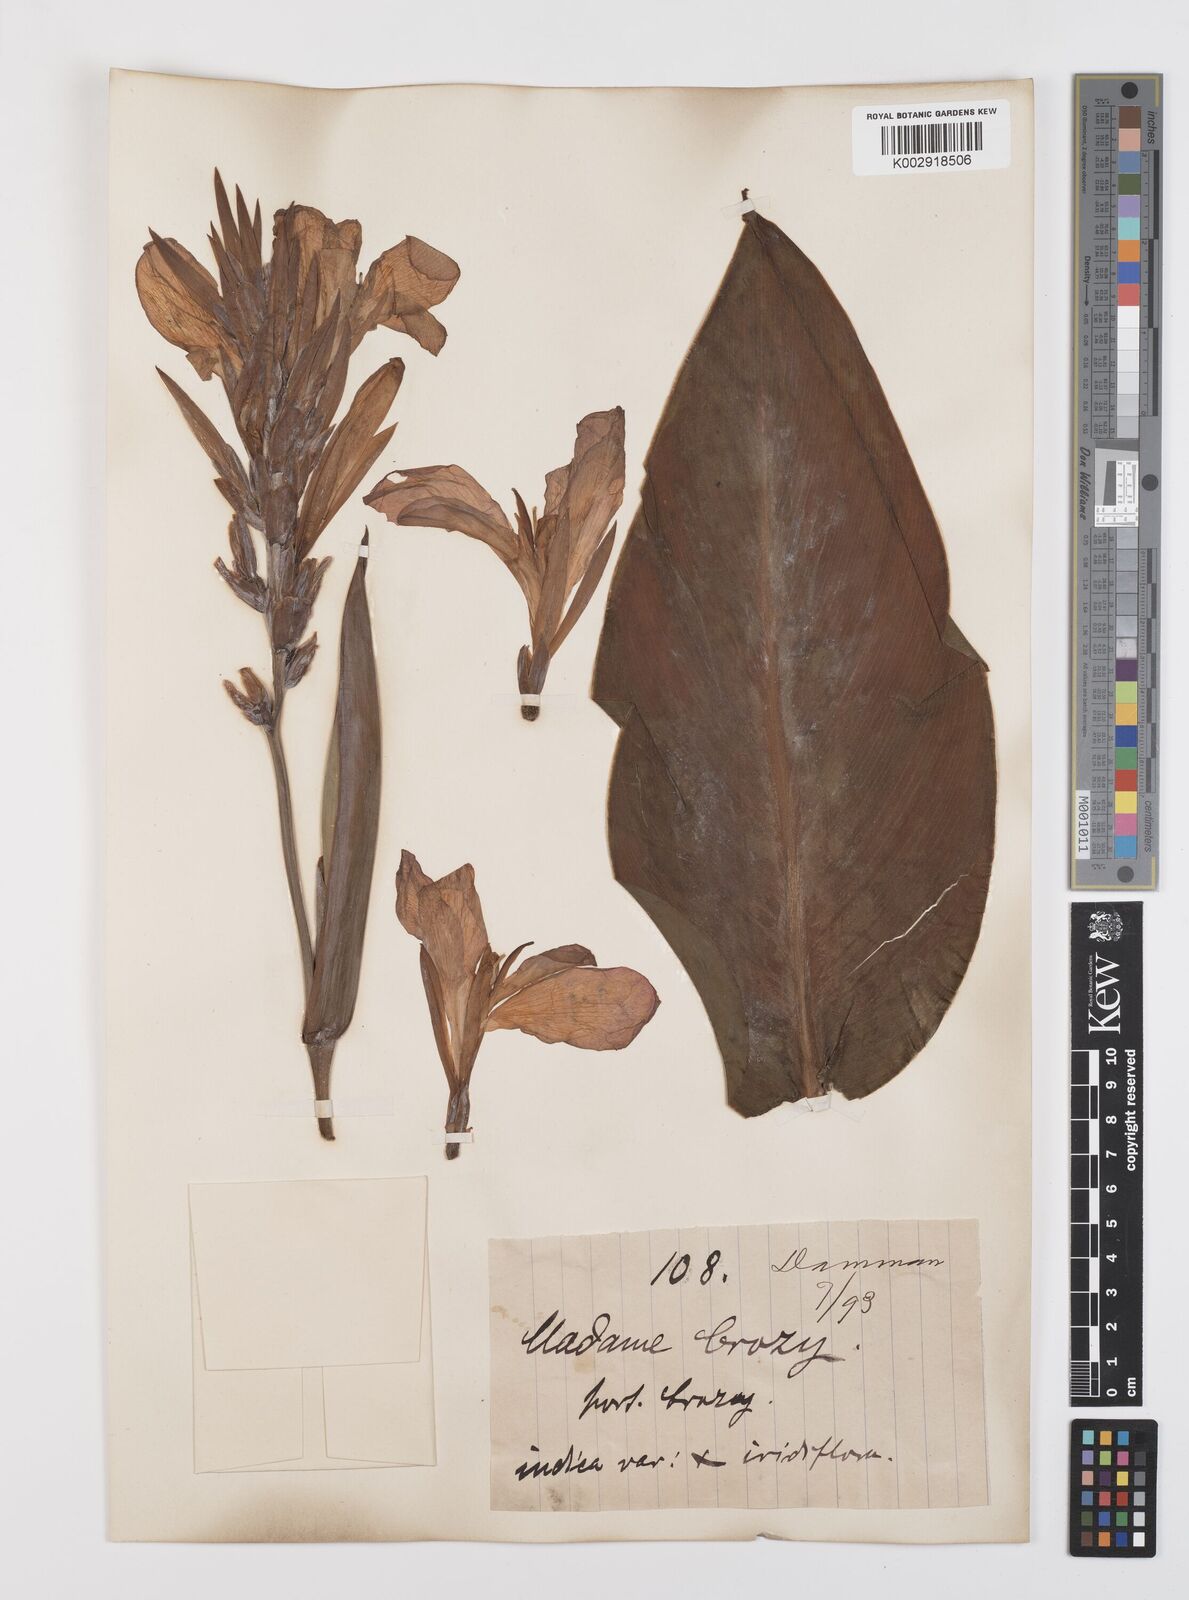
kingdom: Plantae
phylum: Tracheophyta
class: Liliopsida
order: Zingiberales
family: Cannaceae
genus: Canna
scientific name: Canna indica
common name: Indian shot
